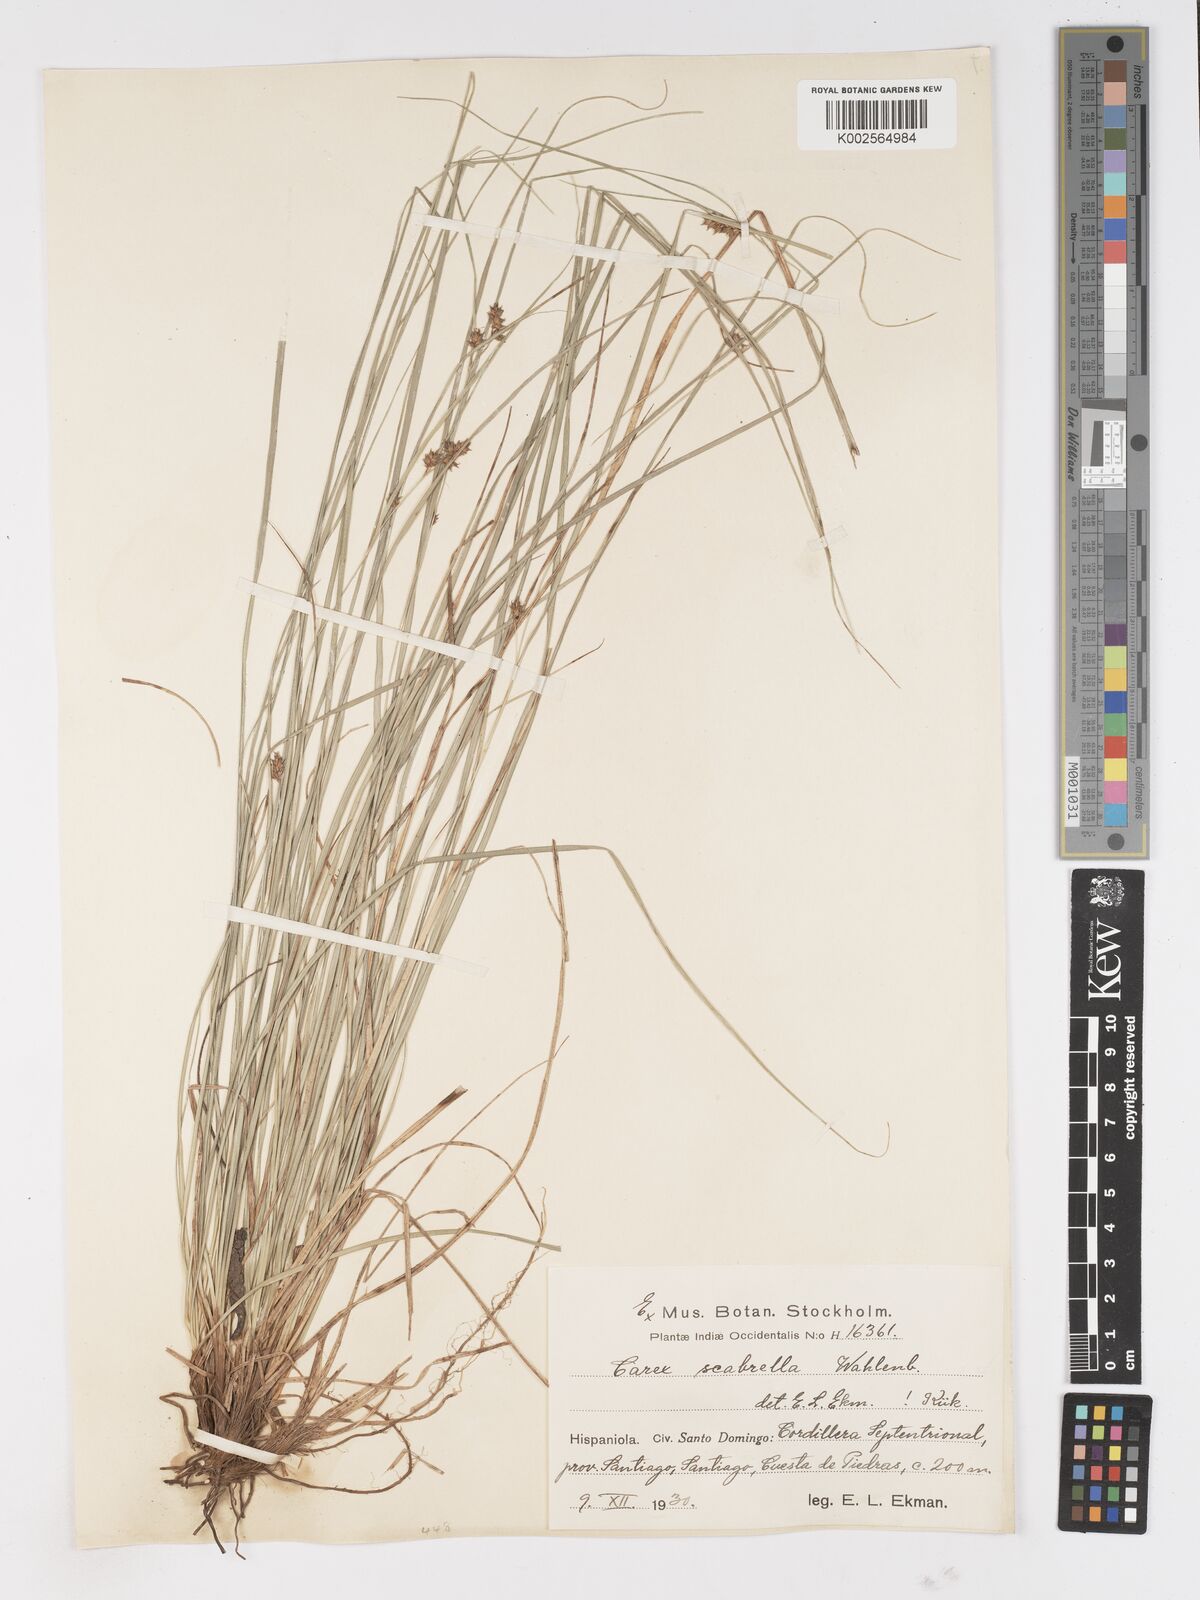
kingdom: Plantae
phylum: Tracheophyta
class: Liliopsida
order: Poales
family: Cyperaceae
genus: Carex
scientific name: Carex scabrella
